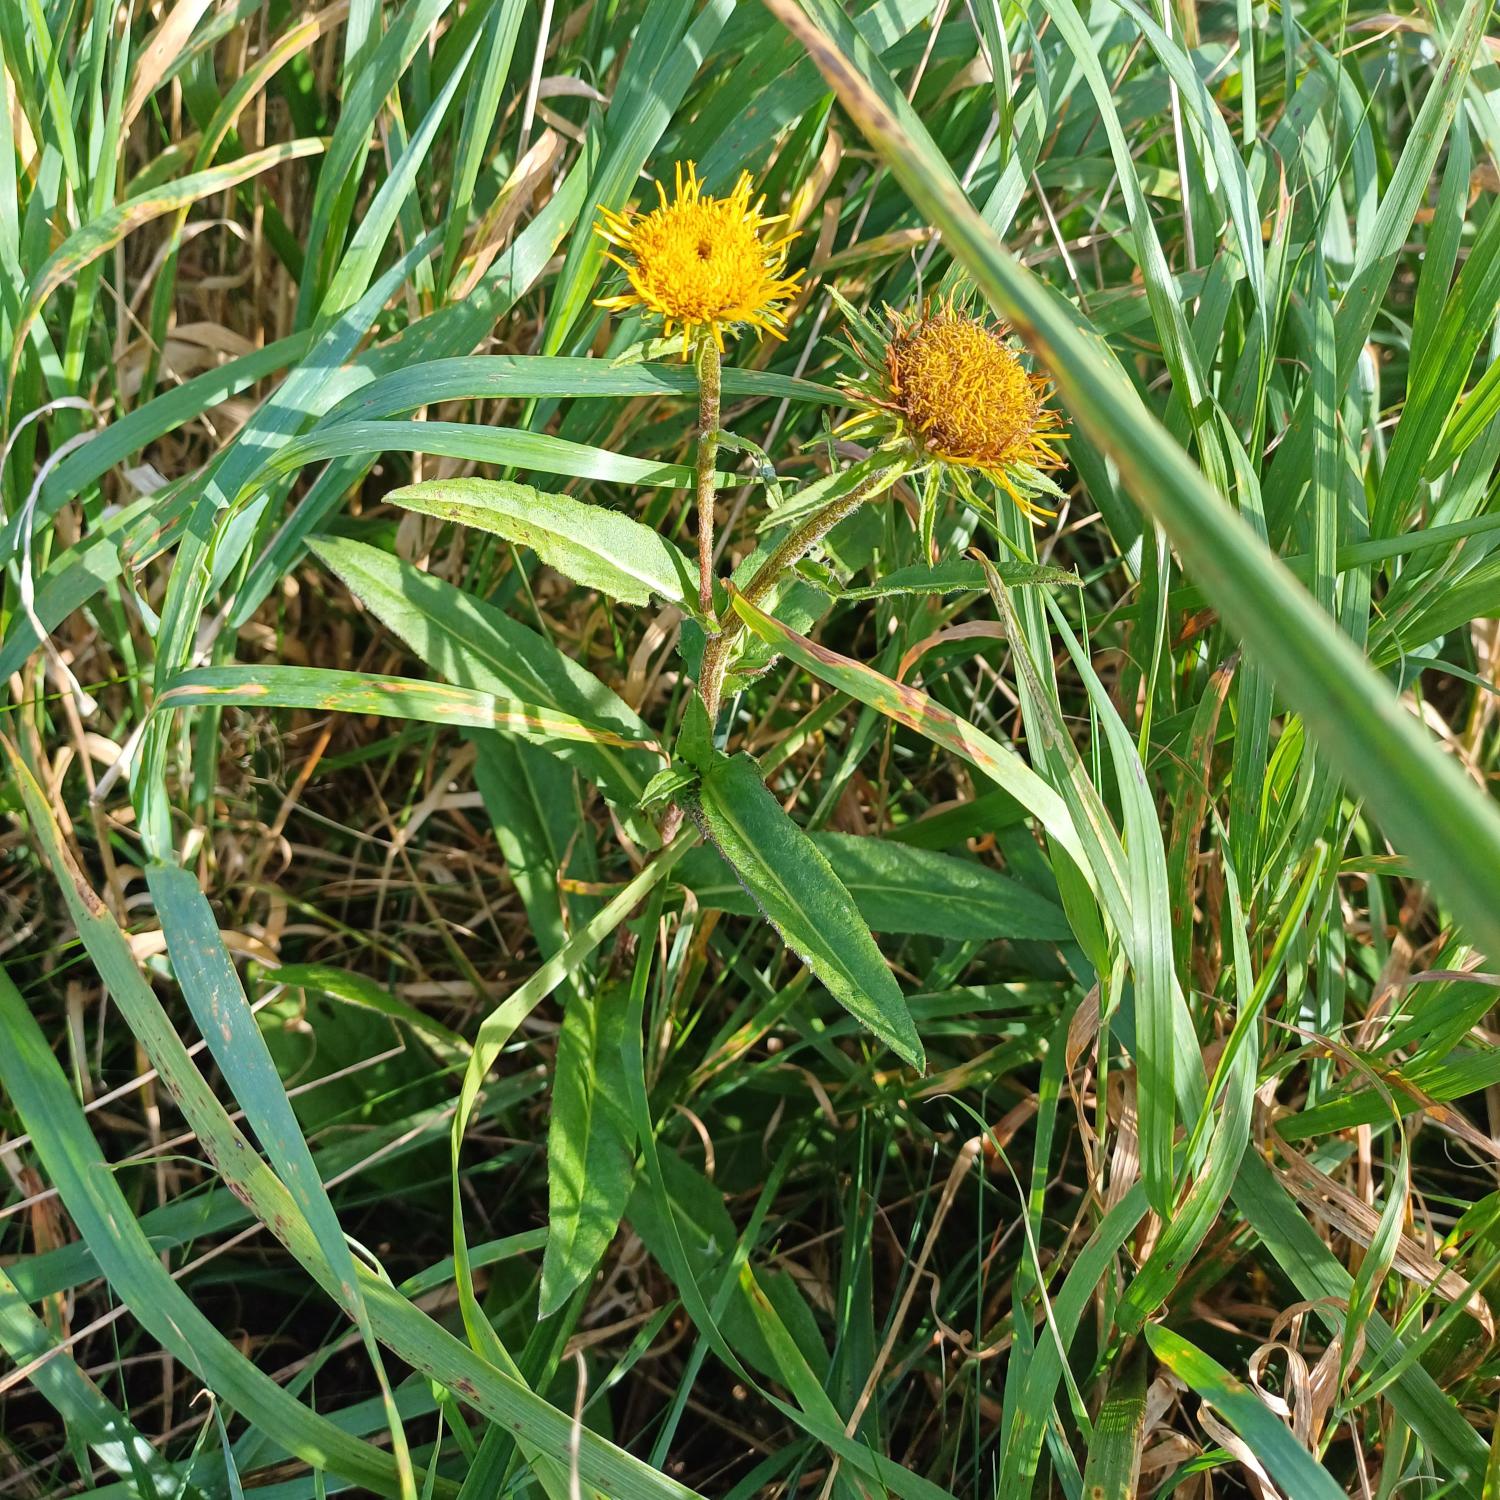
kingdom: Plantae
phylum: Tracheophyta
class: Magnoliopsida
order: Asterales
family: Asteraceae
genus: Pentanema
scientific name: Pentanema britannicum
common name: Soløje-alant
